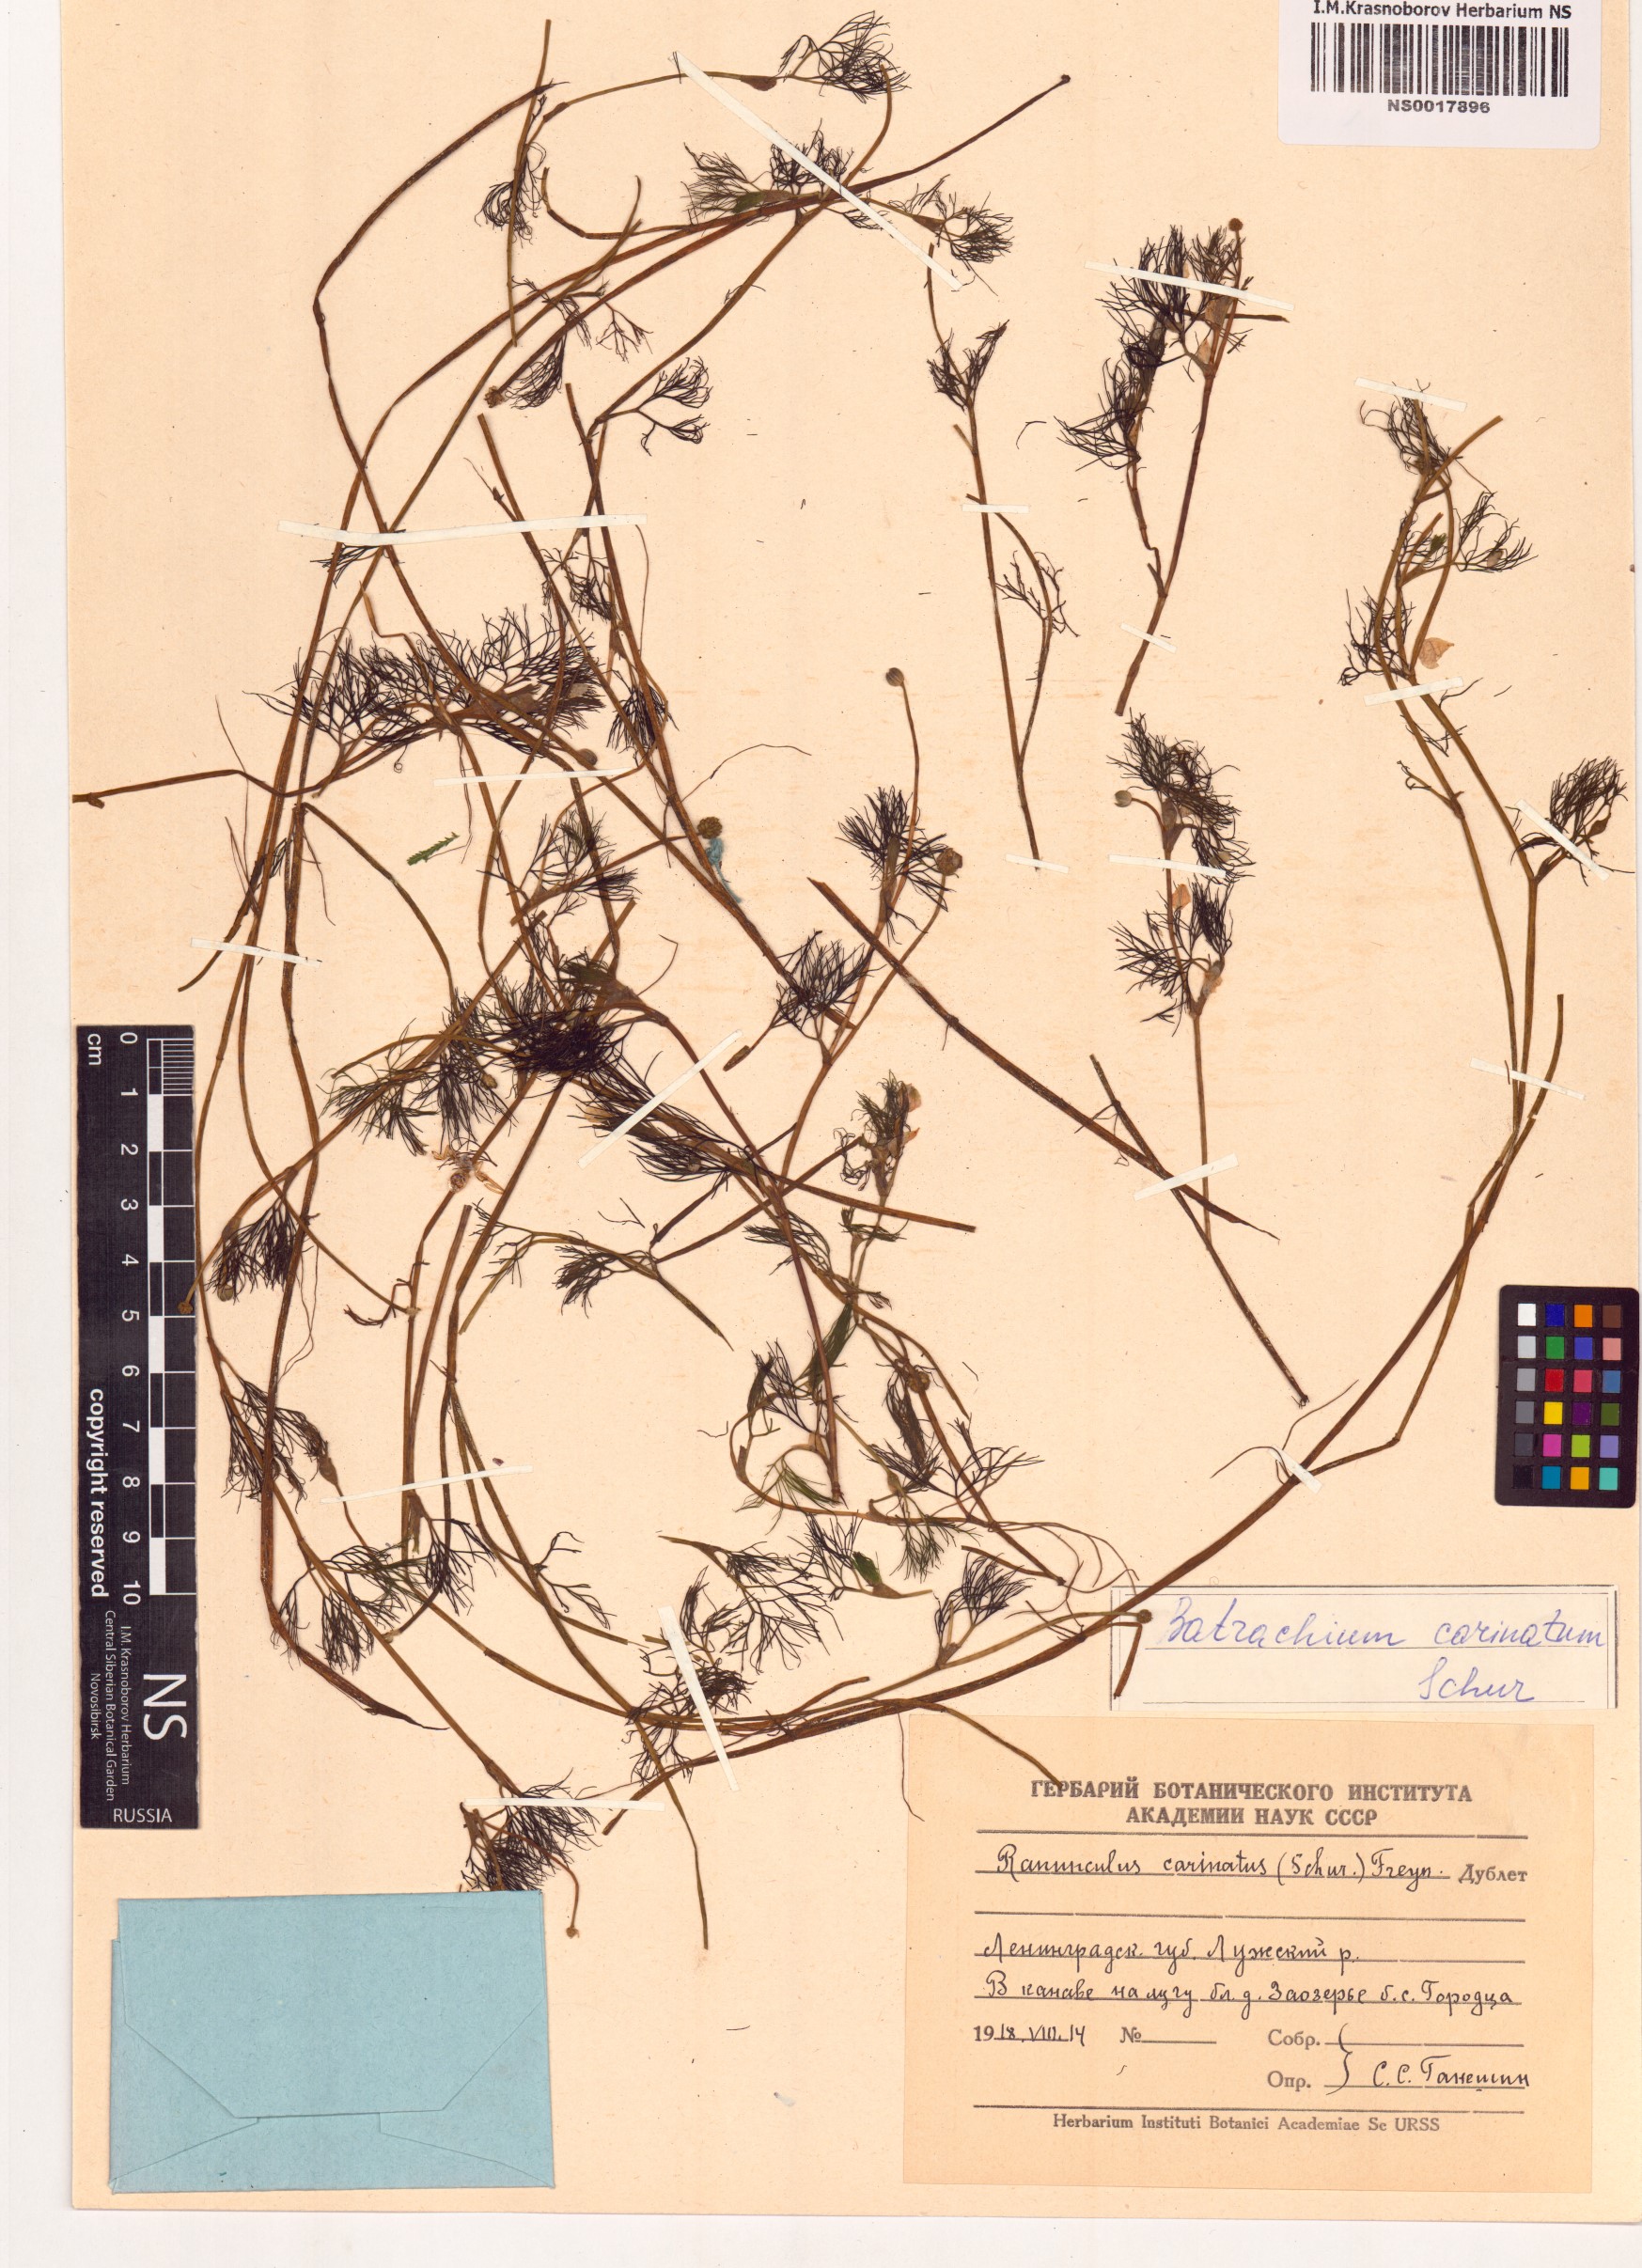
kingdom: Plantae
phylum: Tracheophyta
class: Magnoliopsida
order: Ranunculales
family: Ranunculaceae
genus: Ranunculus
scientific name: Ranunculus aquatilis
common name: Common water-crowfoot
